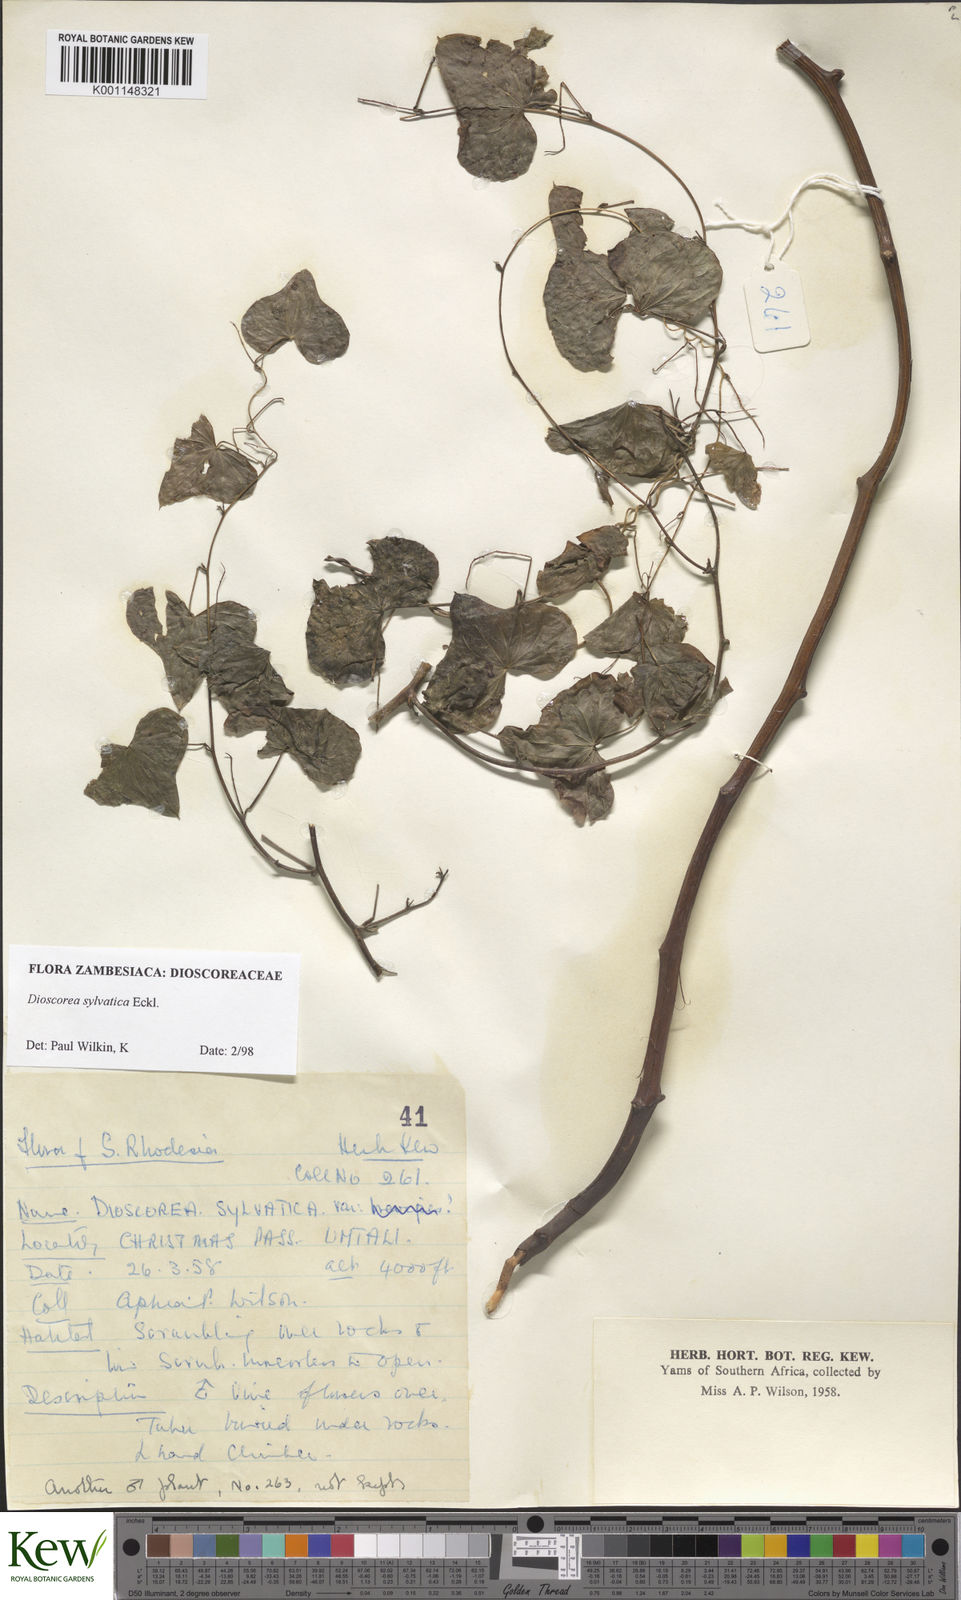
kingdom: Plantae
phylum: Tracheophyta
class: Liliopsida
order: Dioscoreales
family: Dioscoreaceae
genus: Dioscorea
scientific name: Dioscorea sylvatica
